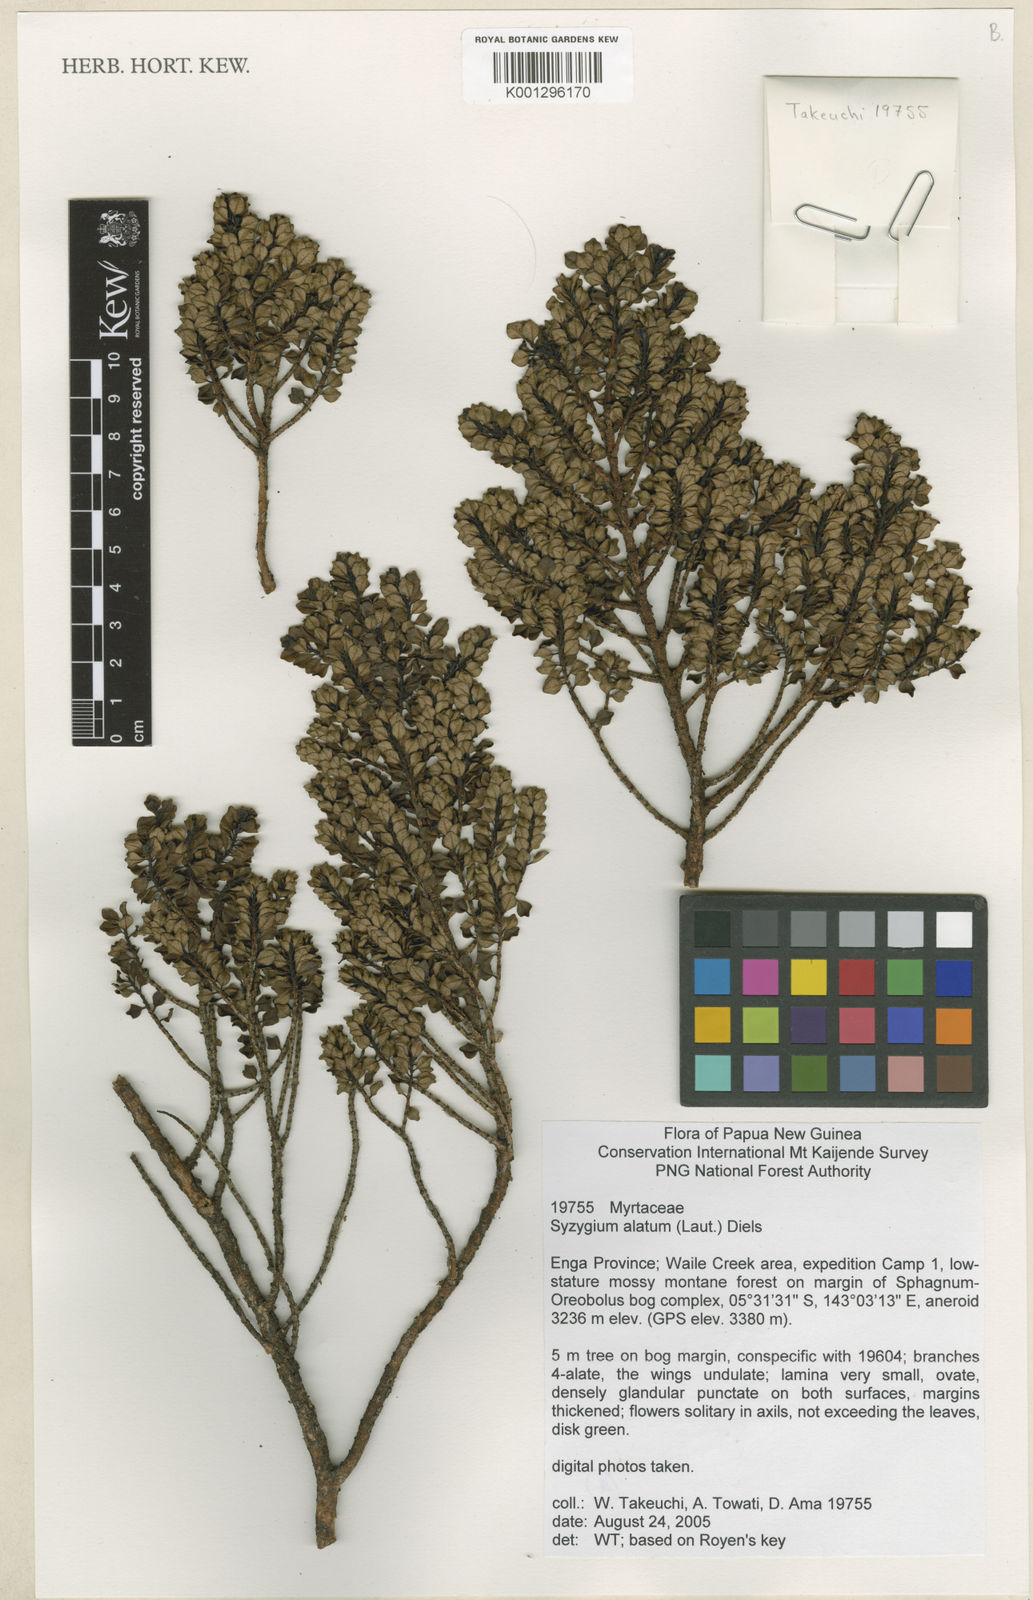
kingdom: Plantae
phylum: Tracheophyta
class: Magnoliopsida
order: Myrtales
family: Myrtaceae
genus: Syzygium
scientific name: Syzygium alatum
